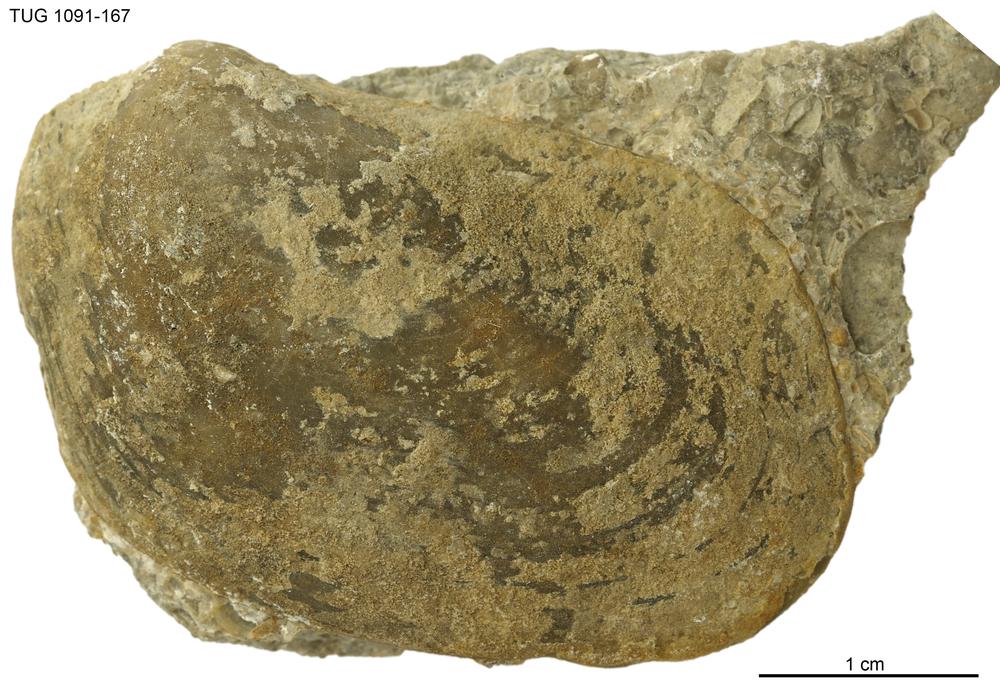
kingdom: Animalia
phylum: Mollusca
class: Bivalvia
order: Ostreida
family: Pterineidae
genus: Pteronitella
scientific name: Pteronitella retroflexa
